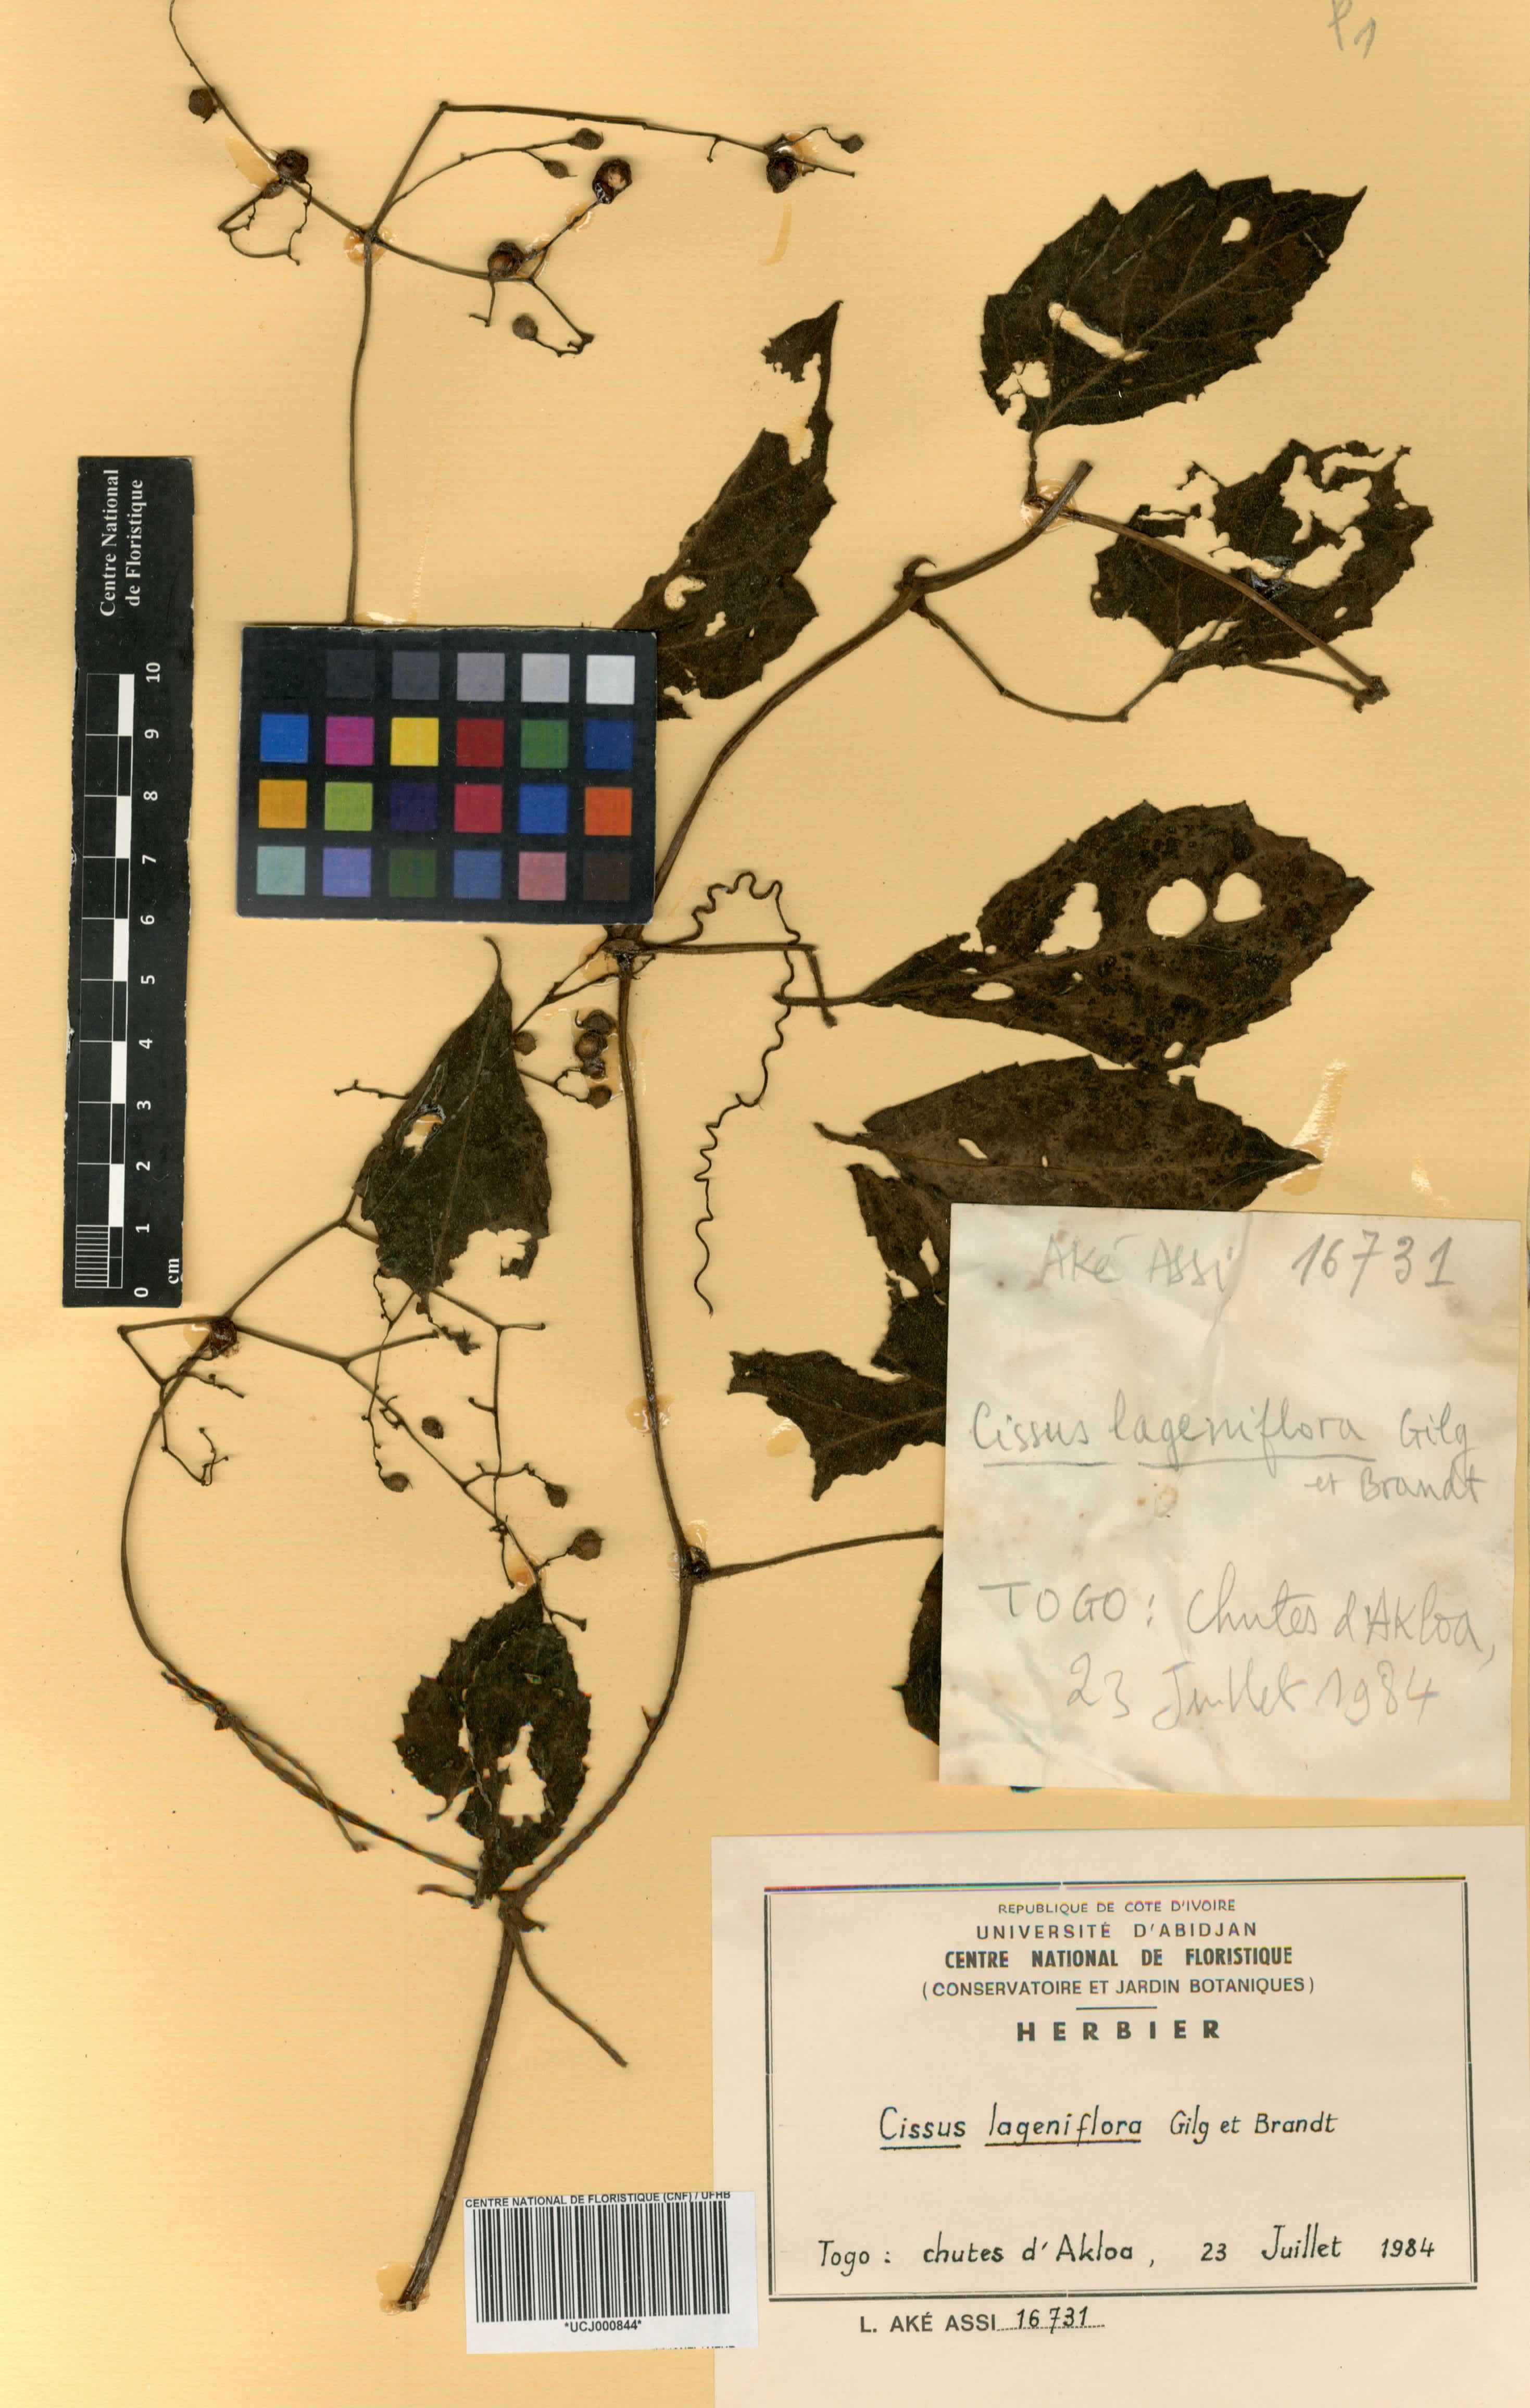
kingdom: Plantae
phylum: Tracheophyta
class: Magnoliopsida
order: Vitales
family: Vitaceae
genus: Cyphostemma
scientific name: Cyphostemma lageniflorum
